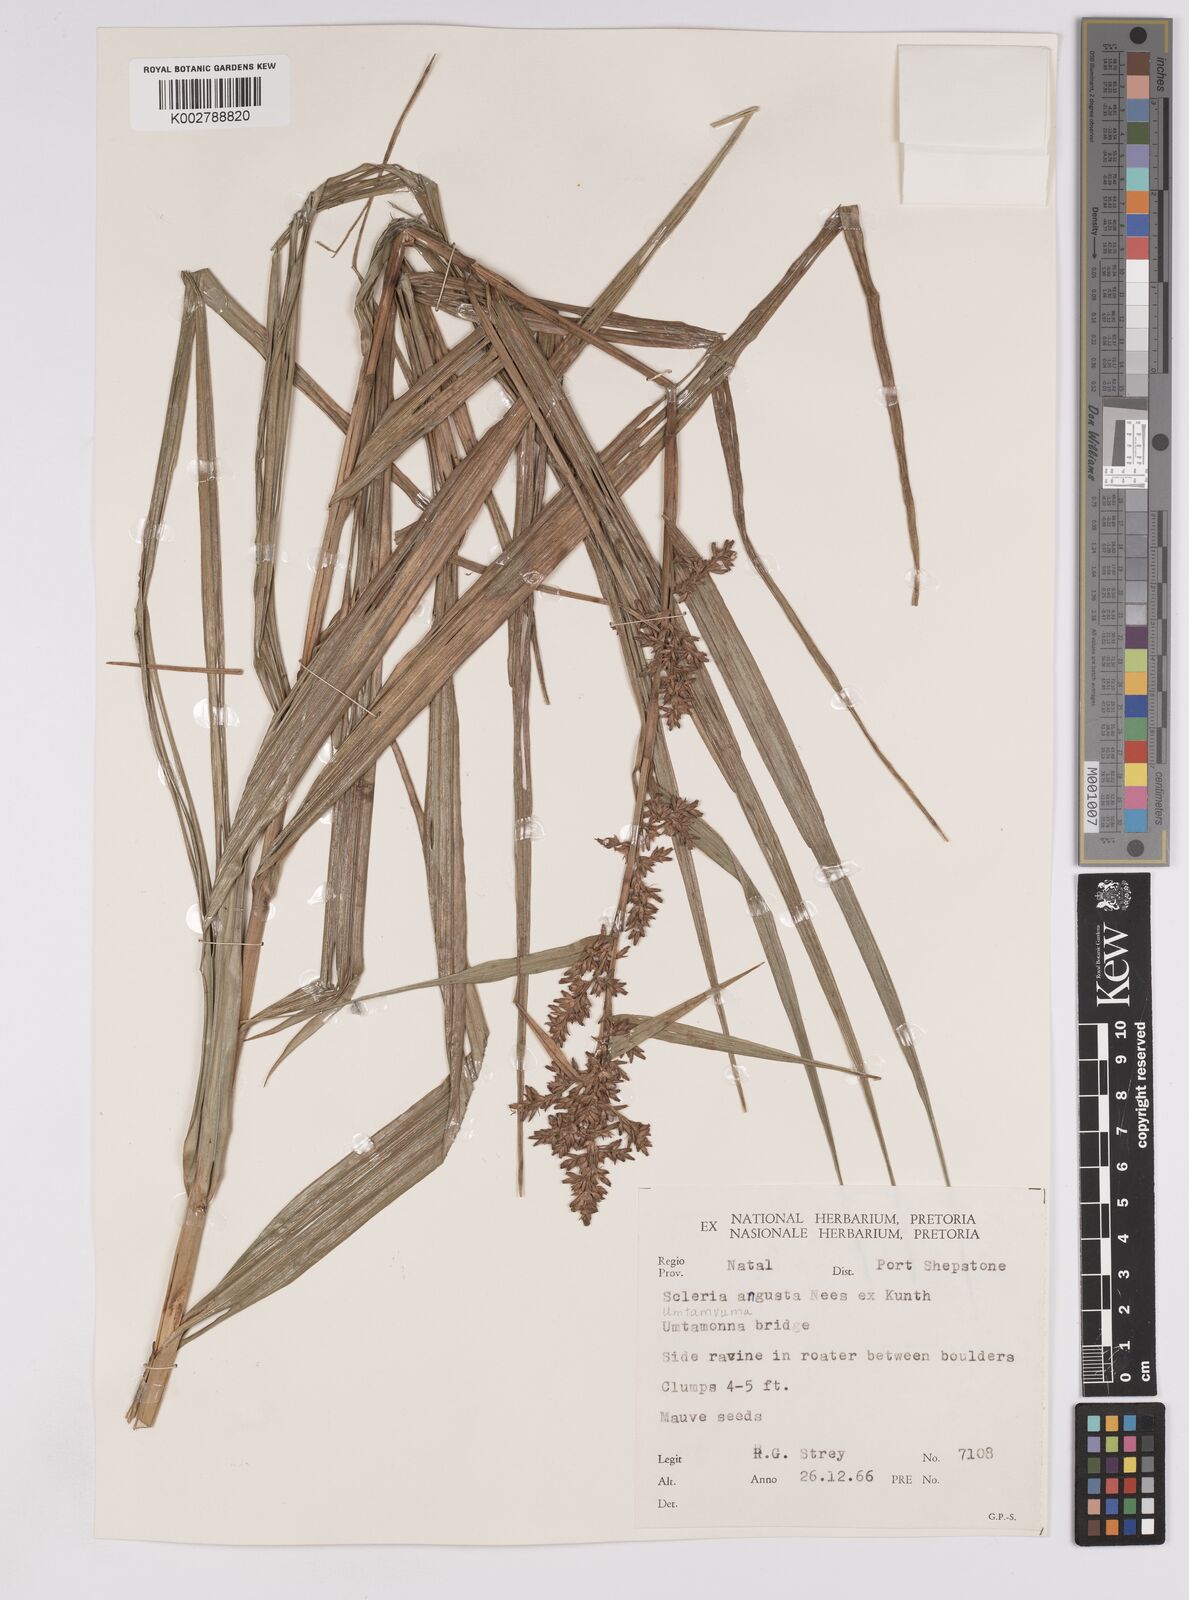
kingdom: Plantae
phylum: Tracheophyta
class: Liliopsida
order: Poales
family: Cyperaceae
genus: Scleria
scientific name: Scleria angusta
